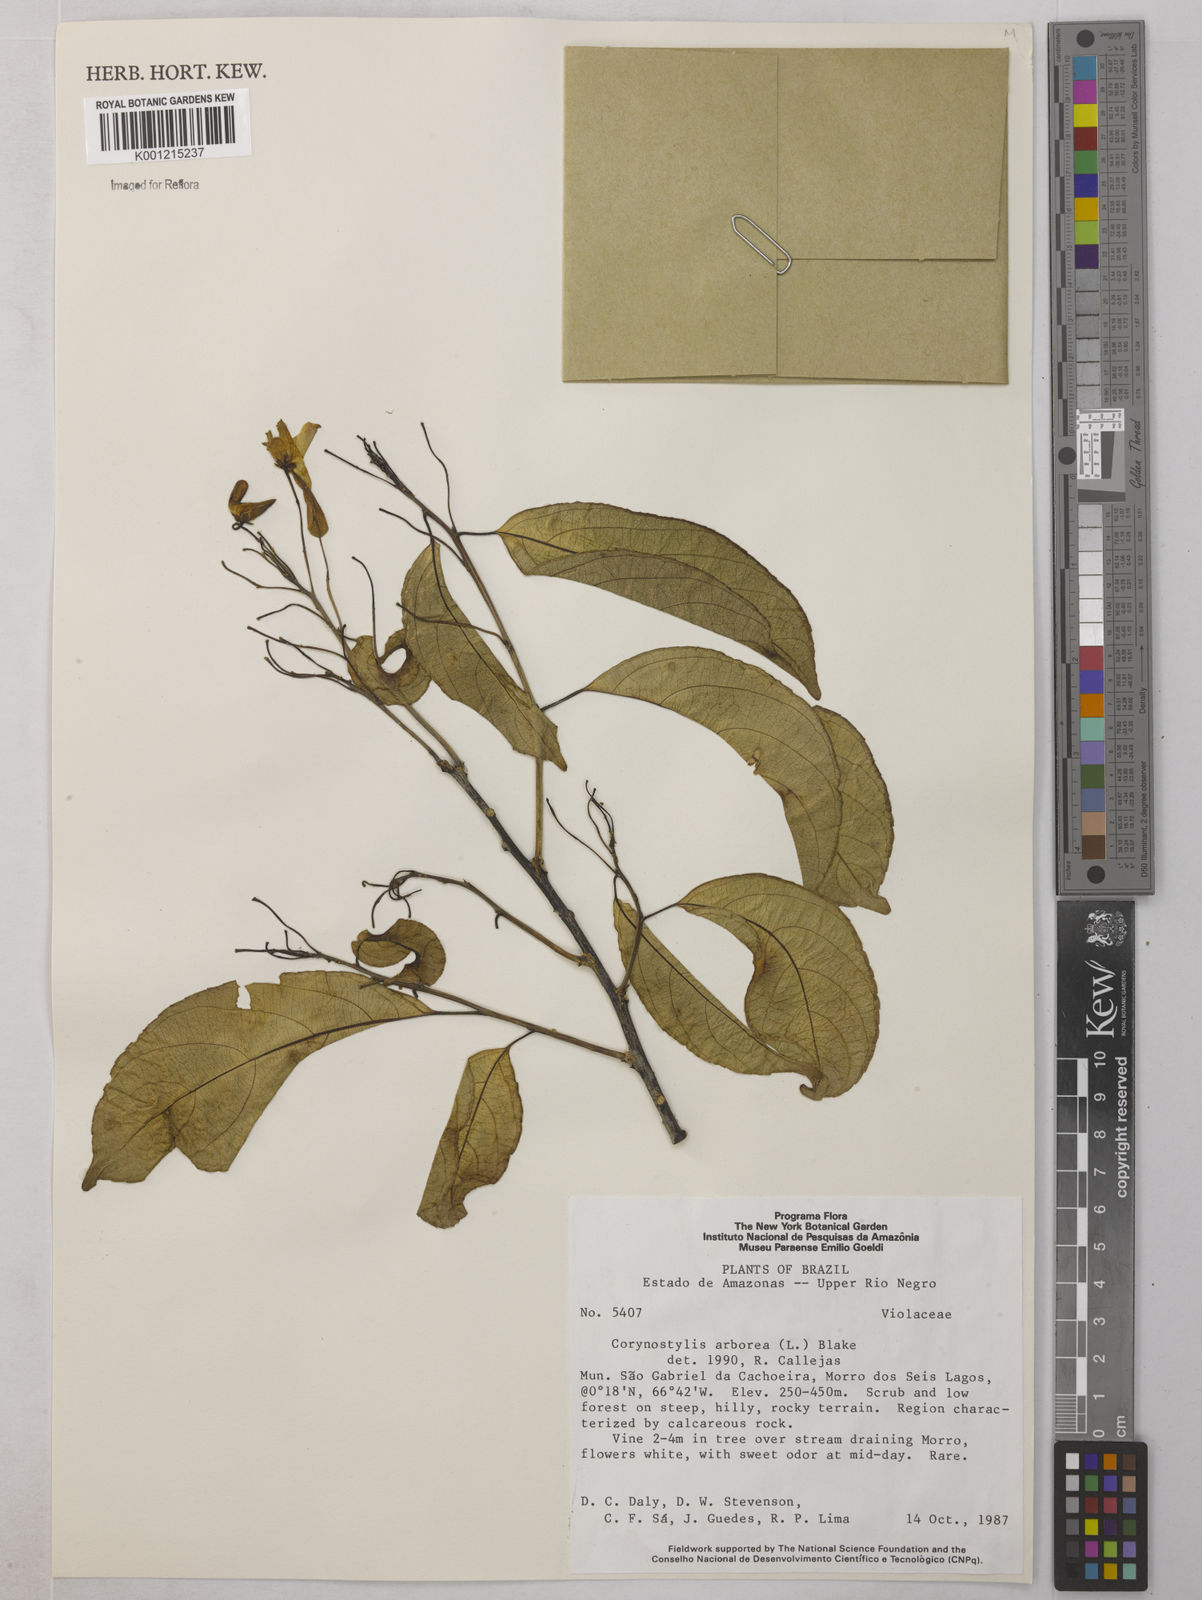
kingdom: Plantae
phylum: Tracheophyta
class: Magnoliopsida
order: Malpighiales
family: Violaceae
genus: Calyptrion
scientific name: Calyptrion arboreum
